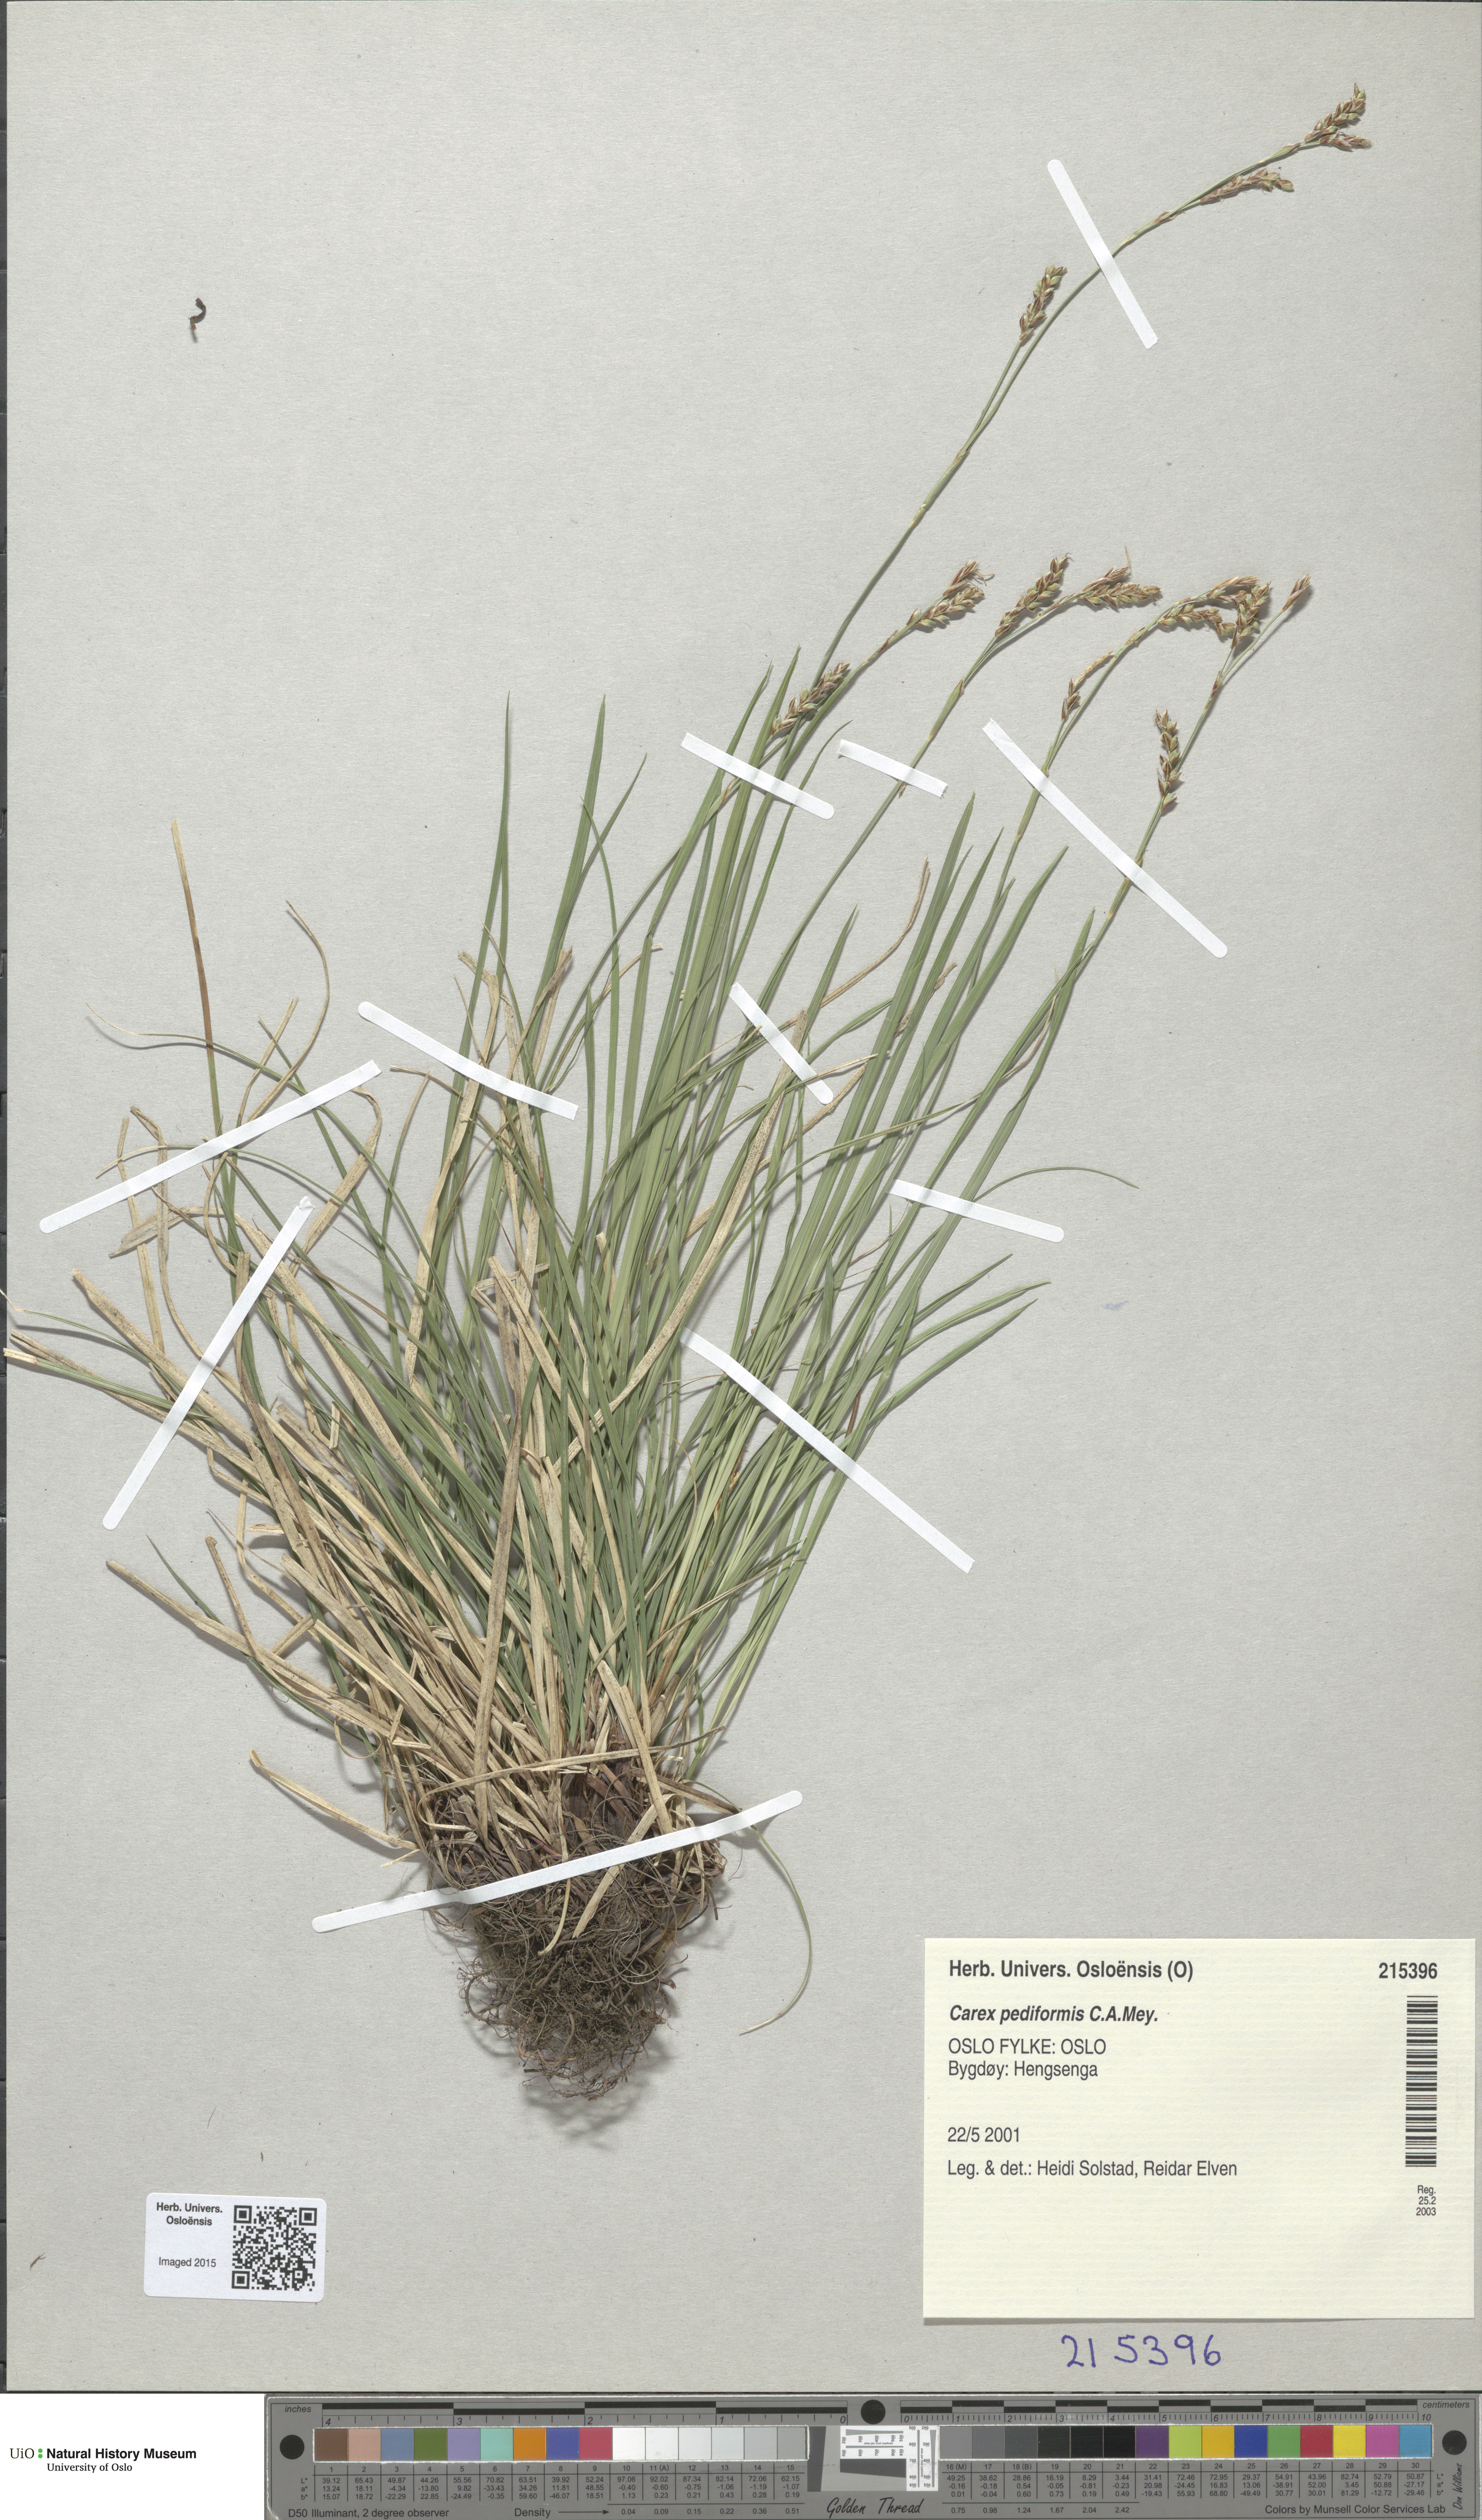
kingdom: Plantae
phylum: Tracheophyta
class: Liliopsida
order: Poales
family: Cyperaceae
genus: Carex
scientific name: Carex rhizina
